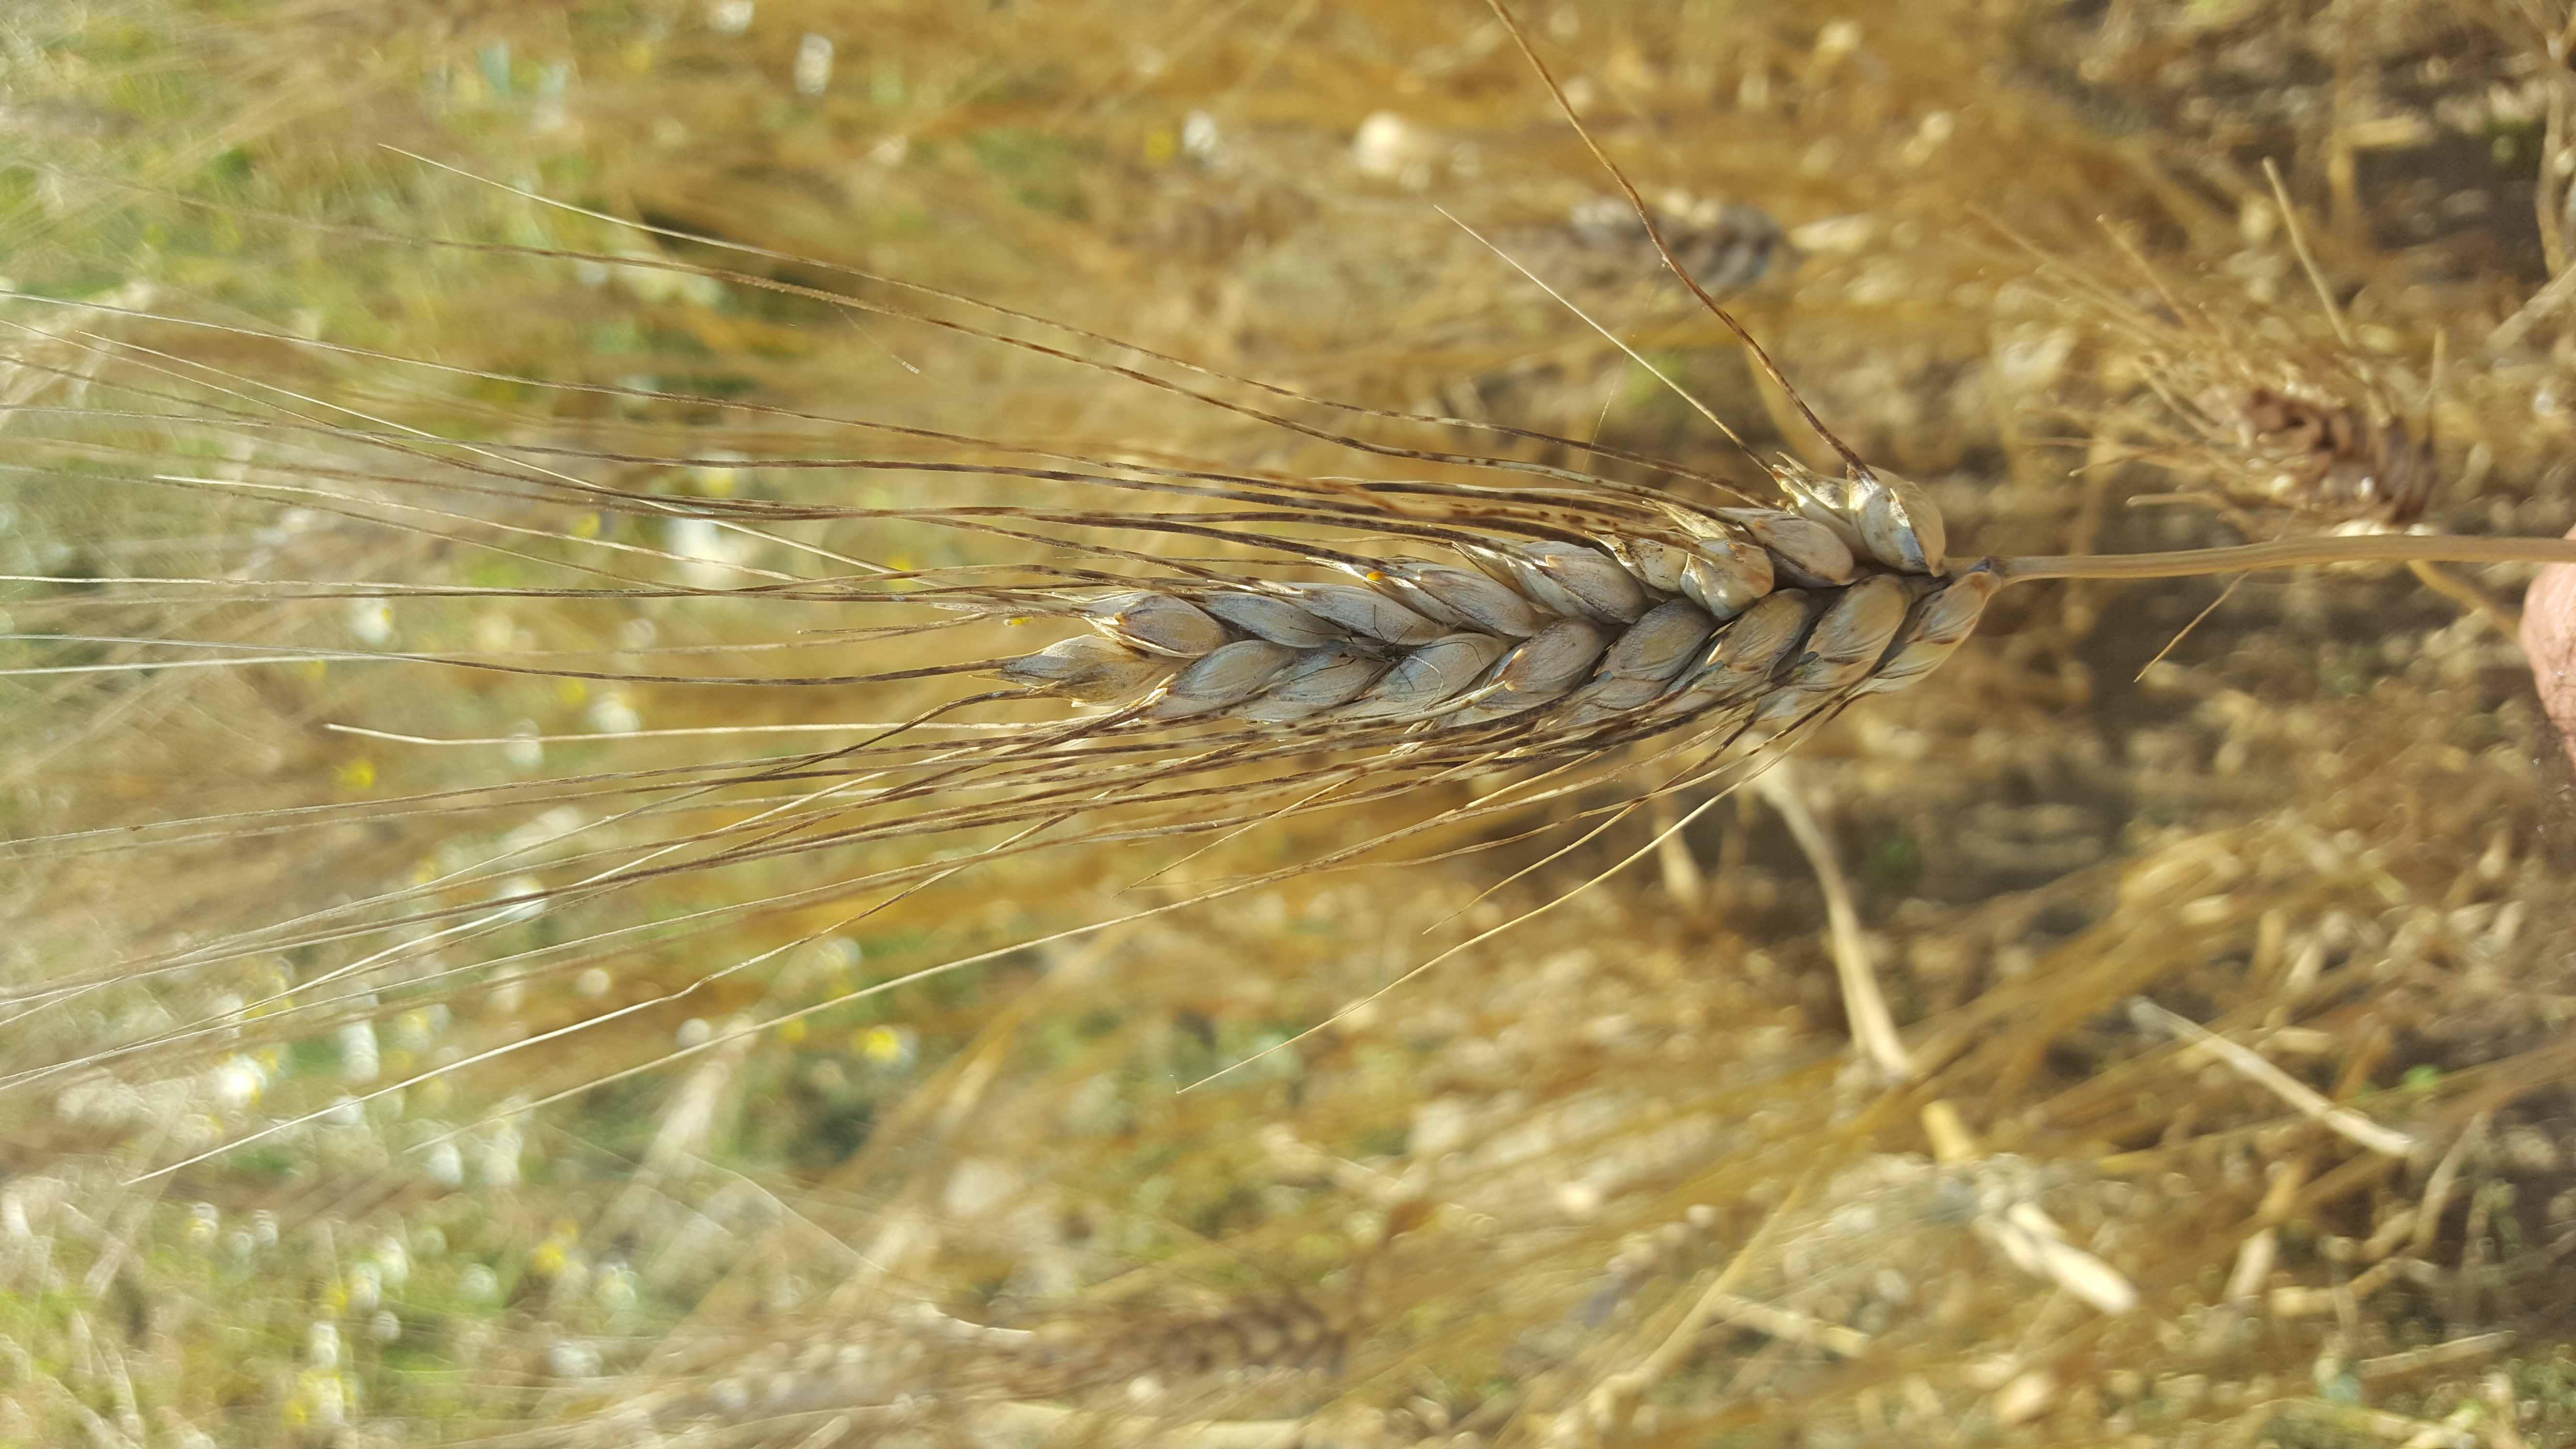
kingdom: Plantae
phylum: Tracheophyta
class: Liliopsida
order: Poales
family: Poaceae
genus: Triticum
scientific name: Triticum turgidum
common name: Rivet wheat
